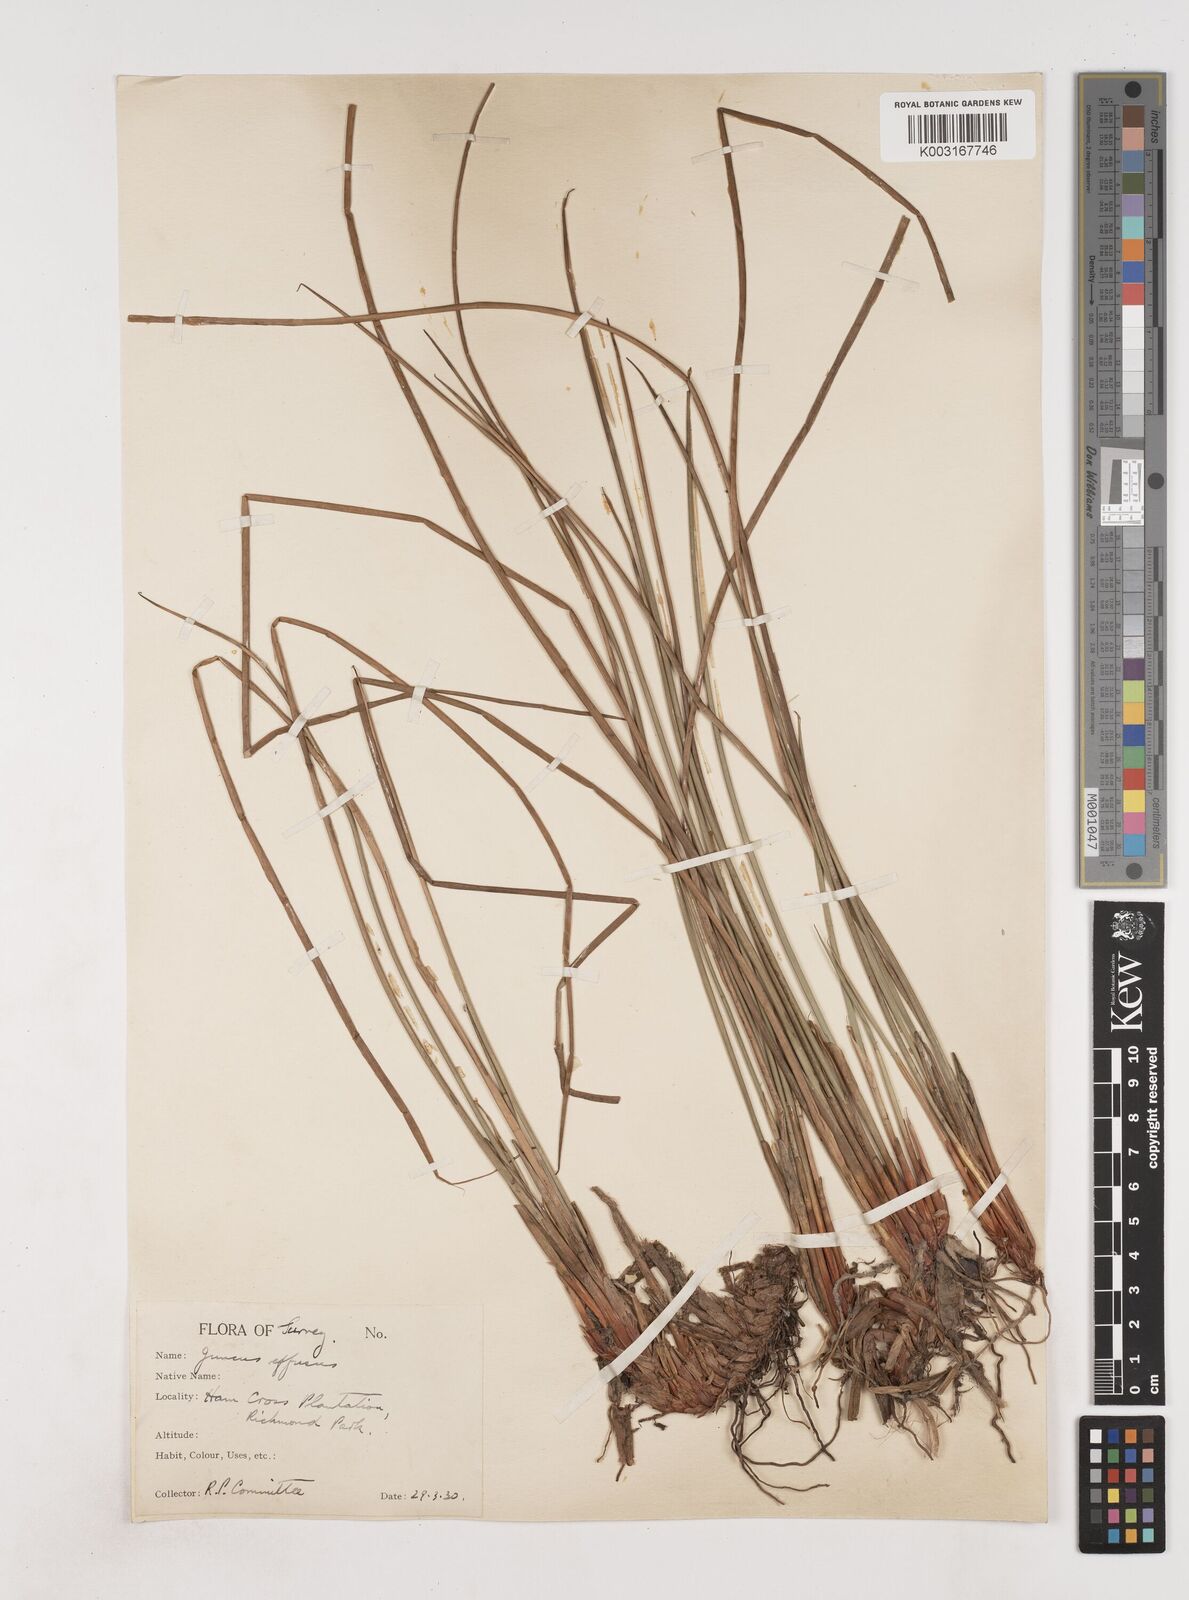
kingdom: Plantae
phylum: Tracheophyta
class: Liliopsida
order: Poales
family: Juncaceae
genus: Juncus
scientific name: Juncus effusus
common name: Soft rush
